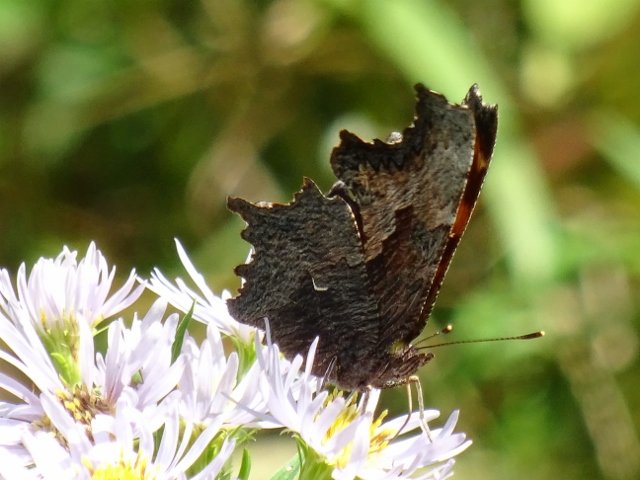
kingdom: Animalia
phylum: Arthropoda
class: Insecta
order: Lepidoptera
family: Nymphalidae
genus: Polygonia
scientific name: Polygonia progne
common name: Gray Comma
